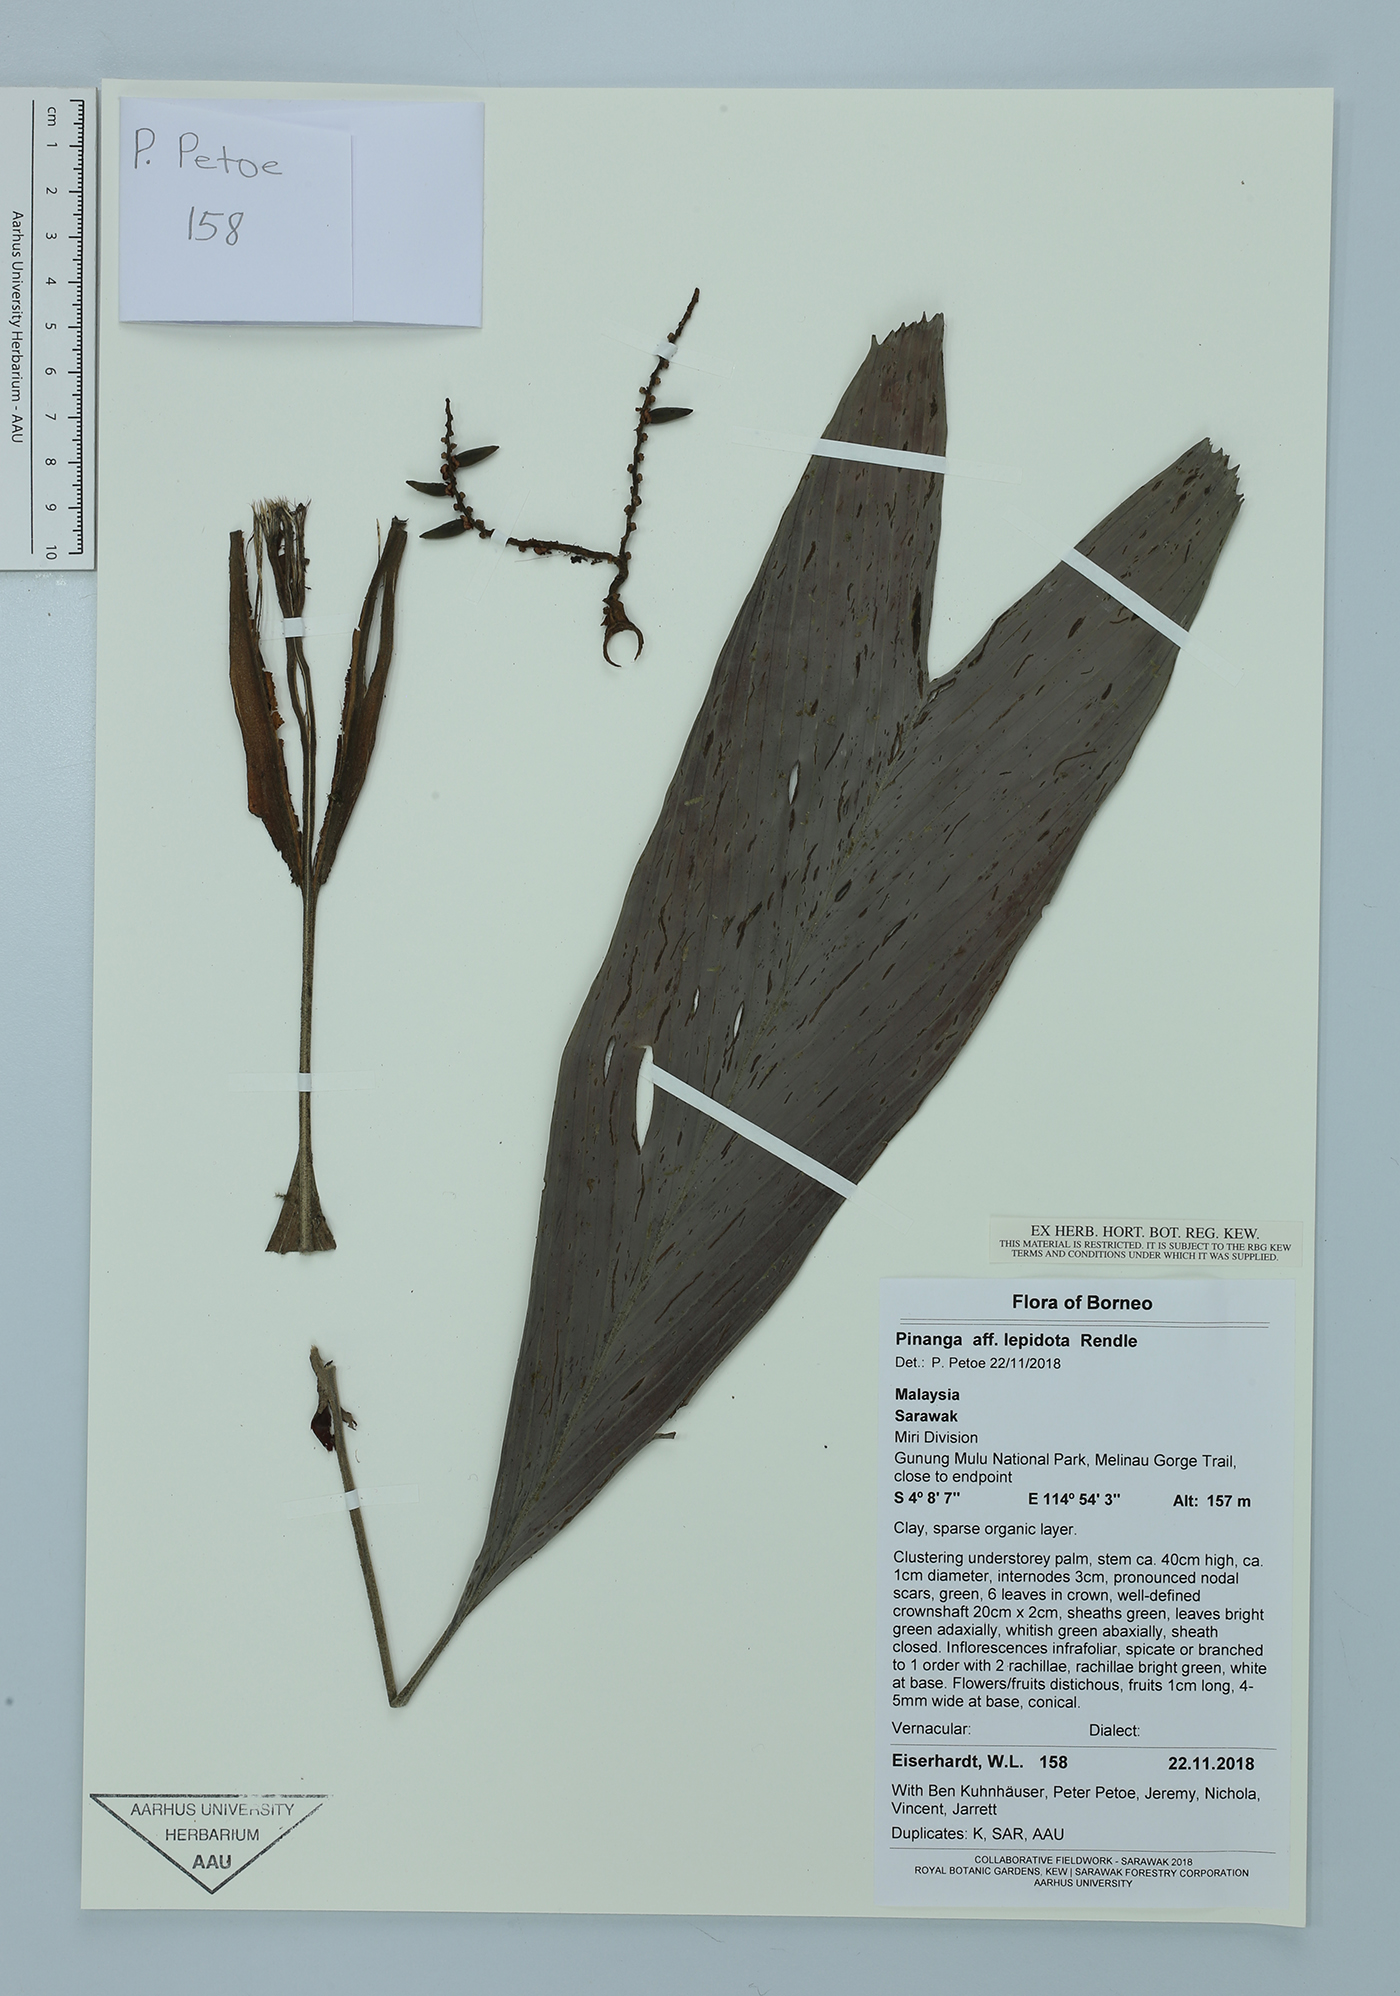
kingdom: Plantae
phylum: Tracheophyta
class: Liliopsida
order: Arecales
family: Arecaceae
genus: Pinanga
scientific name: Pinanga lepidota
